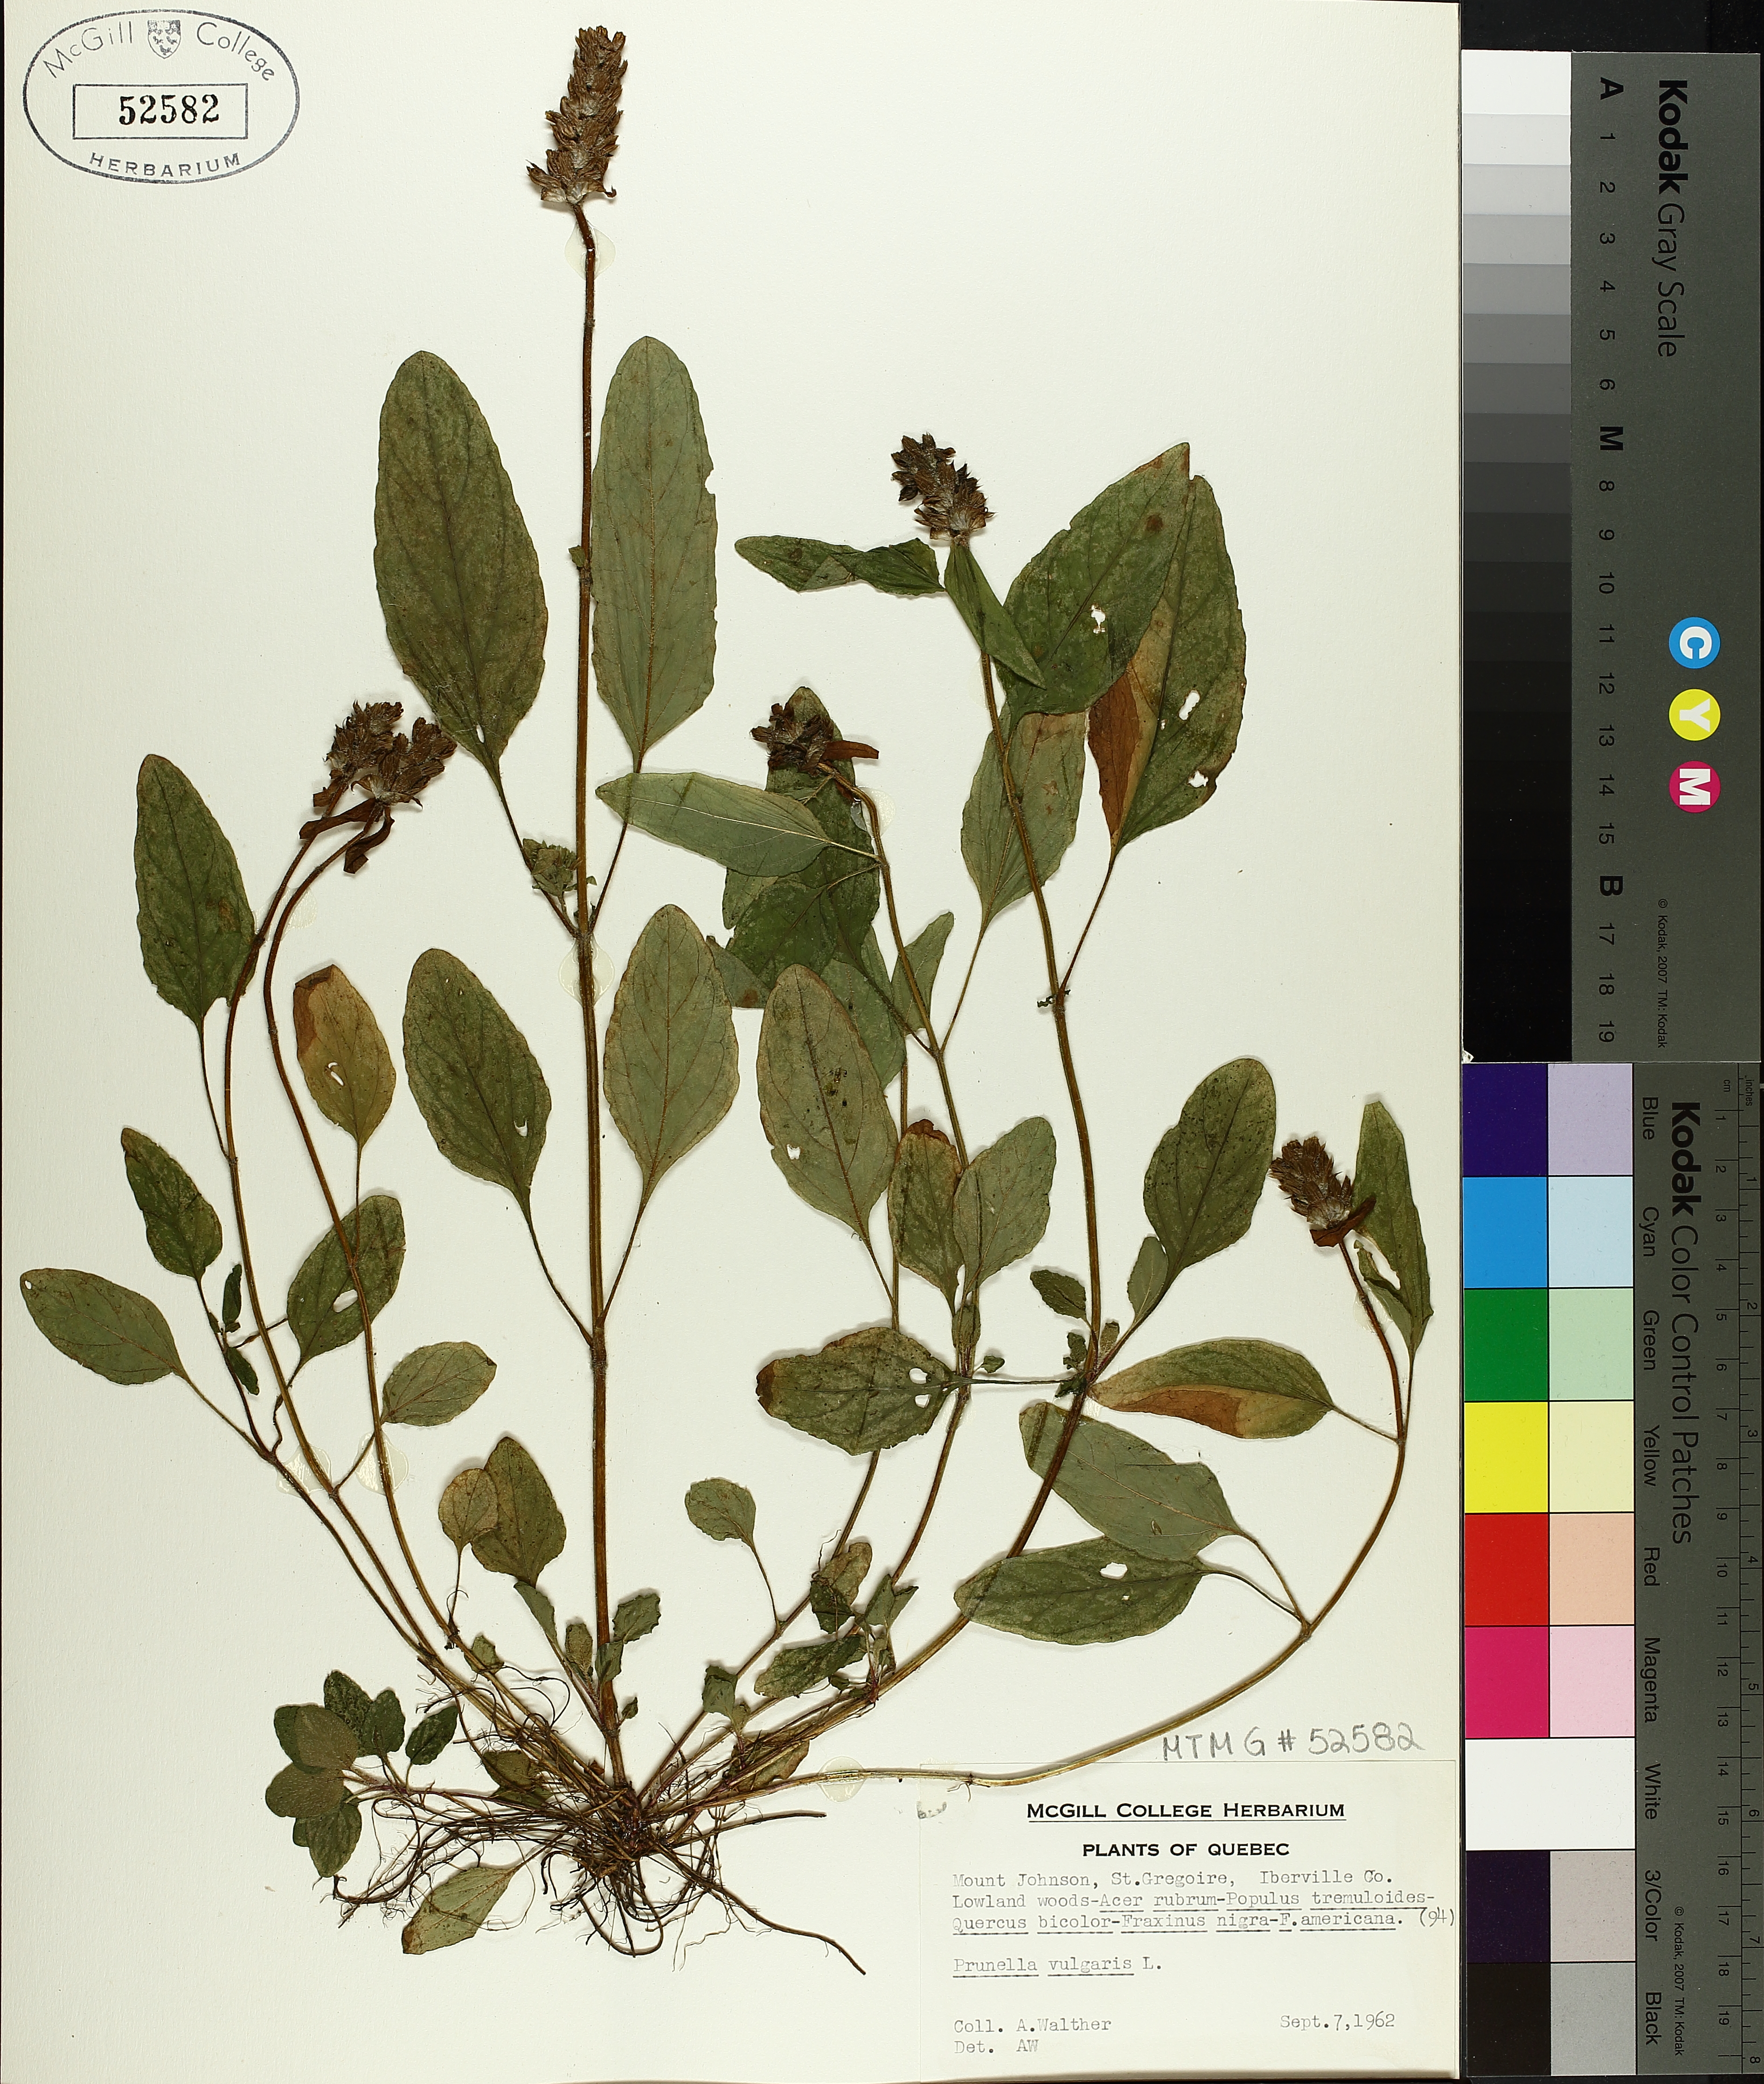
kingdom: Plantae
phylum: Tracheophyta
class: Magnoliopsida
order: Lamiales
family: Lamiaceae
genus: Prunella
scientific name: Prunella vulgaris
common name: Heal-all
